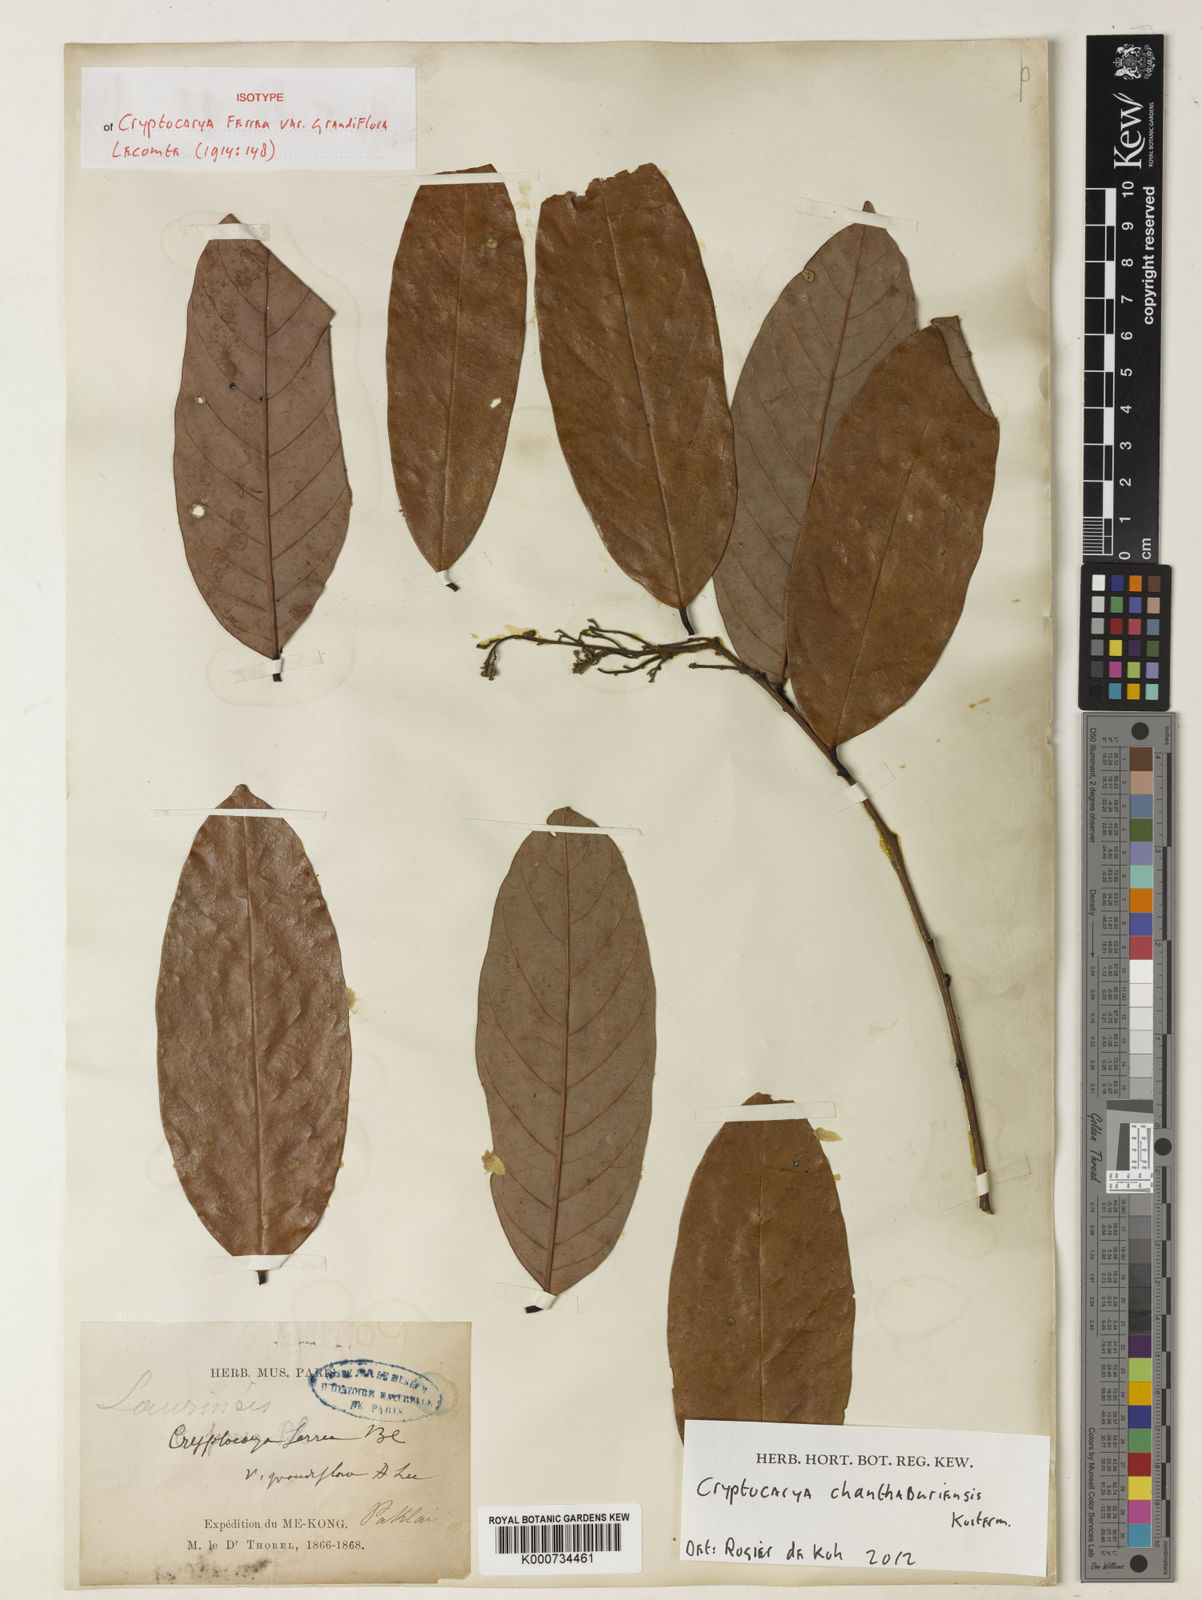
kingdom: Plantae
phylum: Tracheophyta
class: Magnoliopsida
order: Laurales
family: Lauraceae
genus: Cryptocarya
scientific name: Cryptocarya chanthaburiensis
